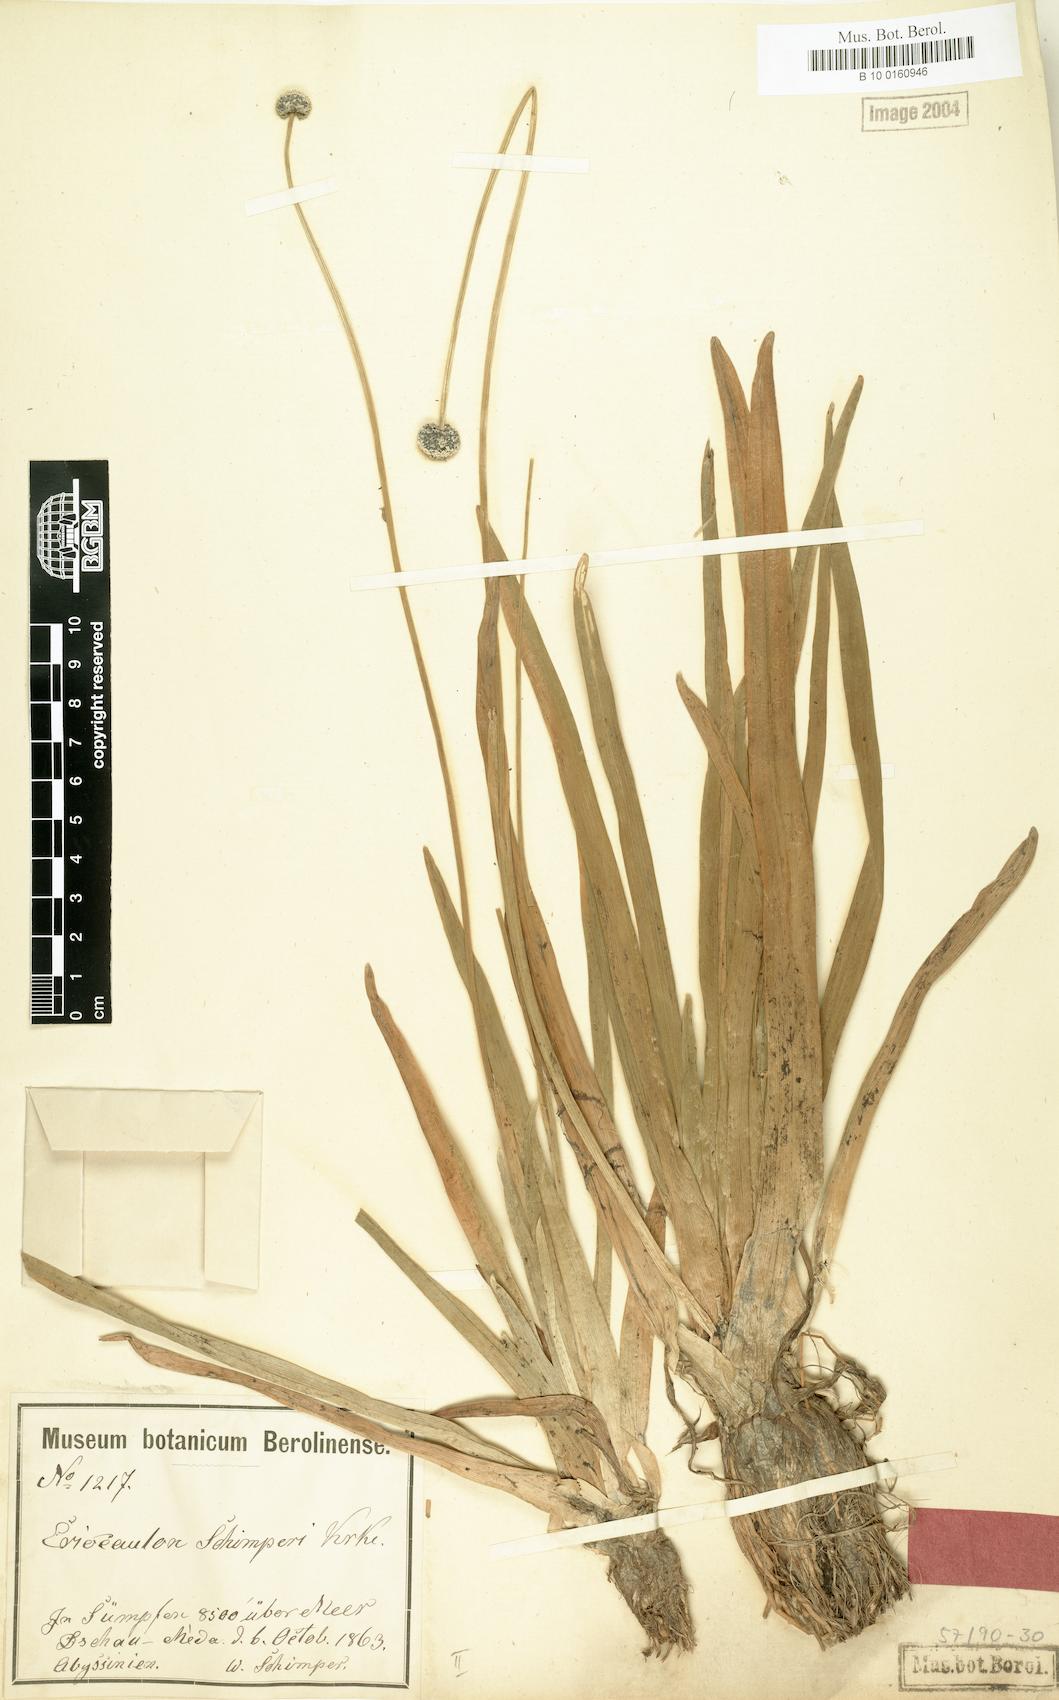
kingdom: Plantae
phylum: Tracheophyta
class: Liliopsida
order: Poales
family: Eriocaulaceae
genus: Eriocaulon
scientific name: Eriocaulon schimperi
